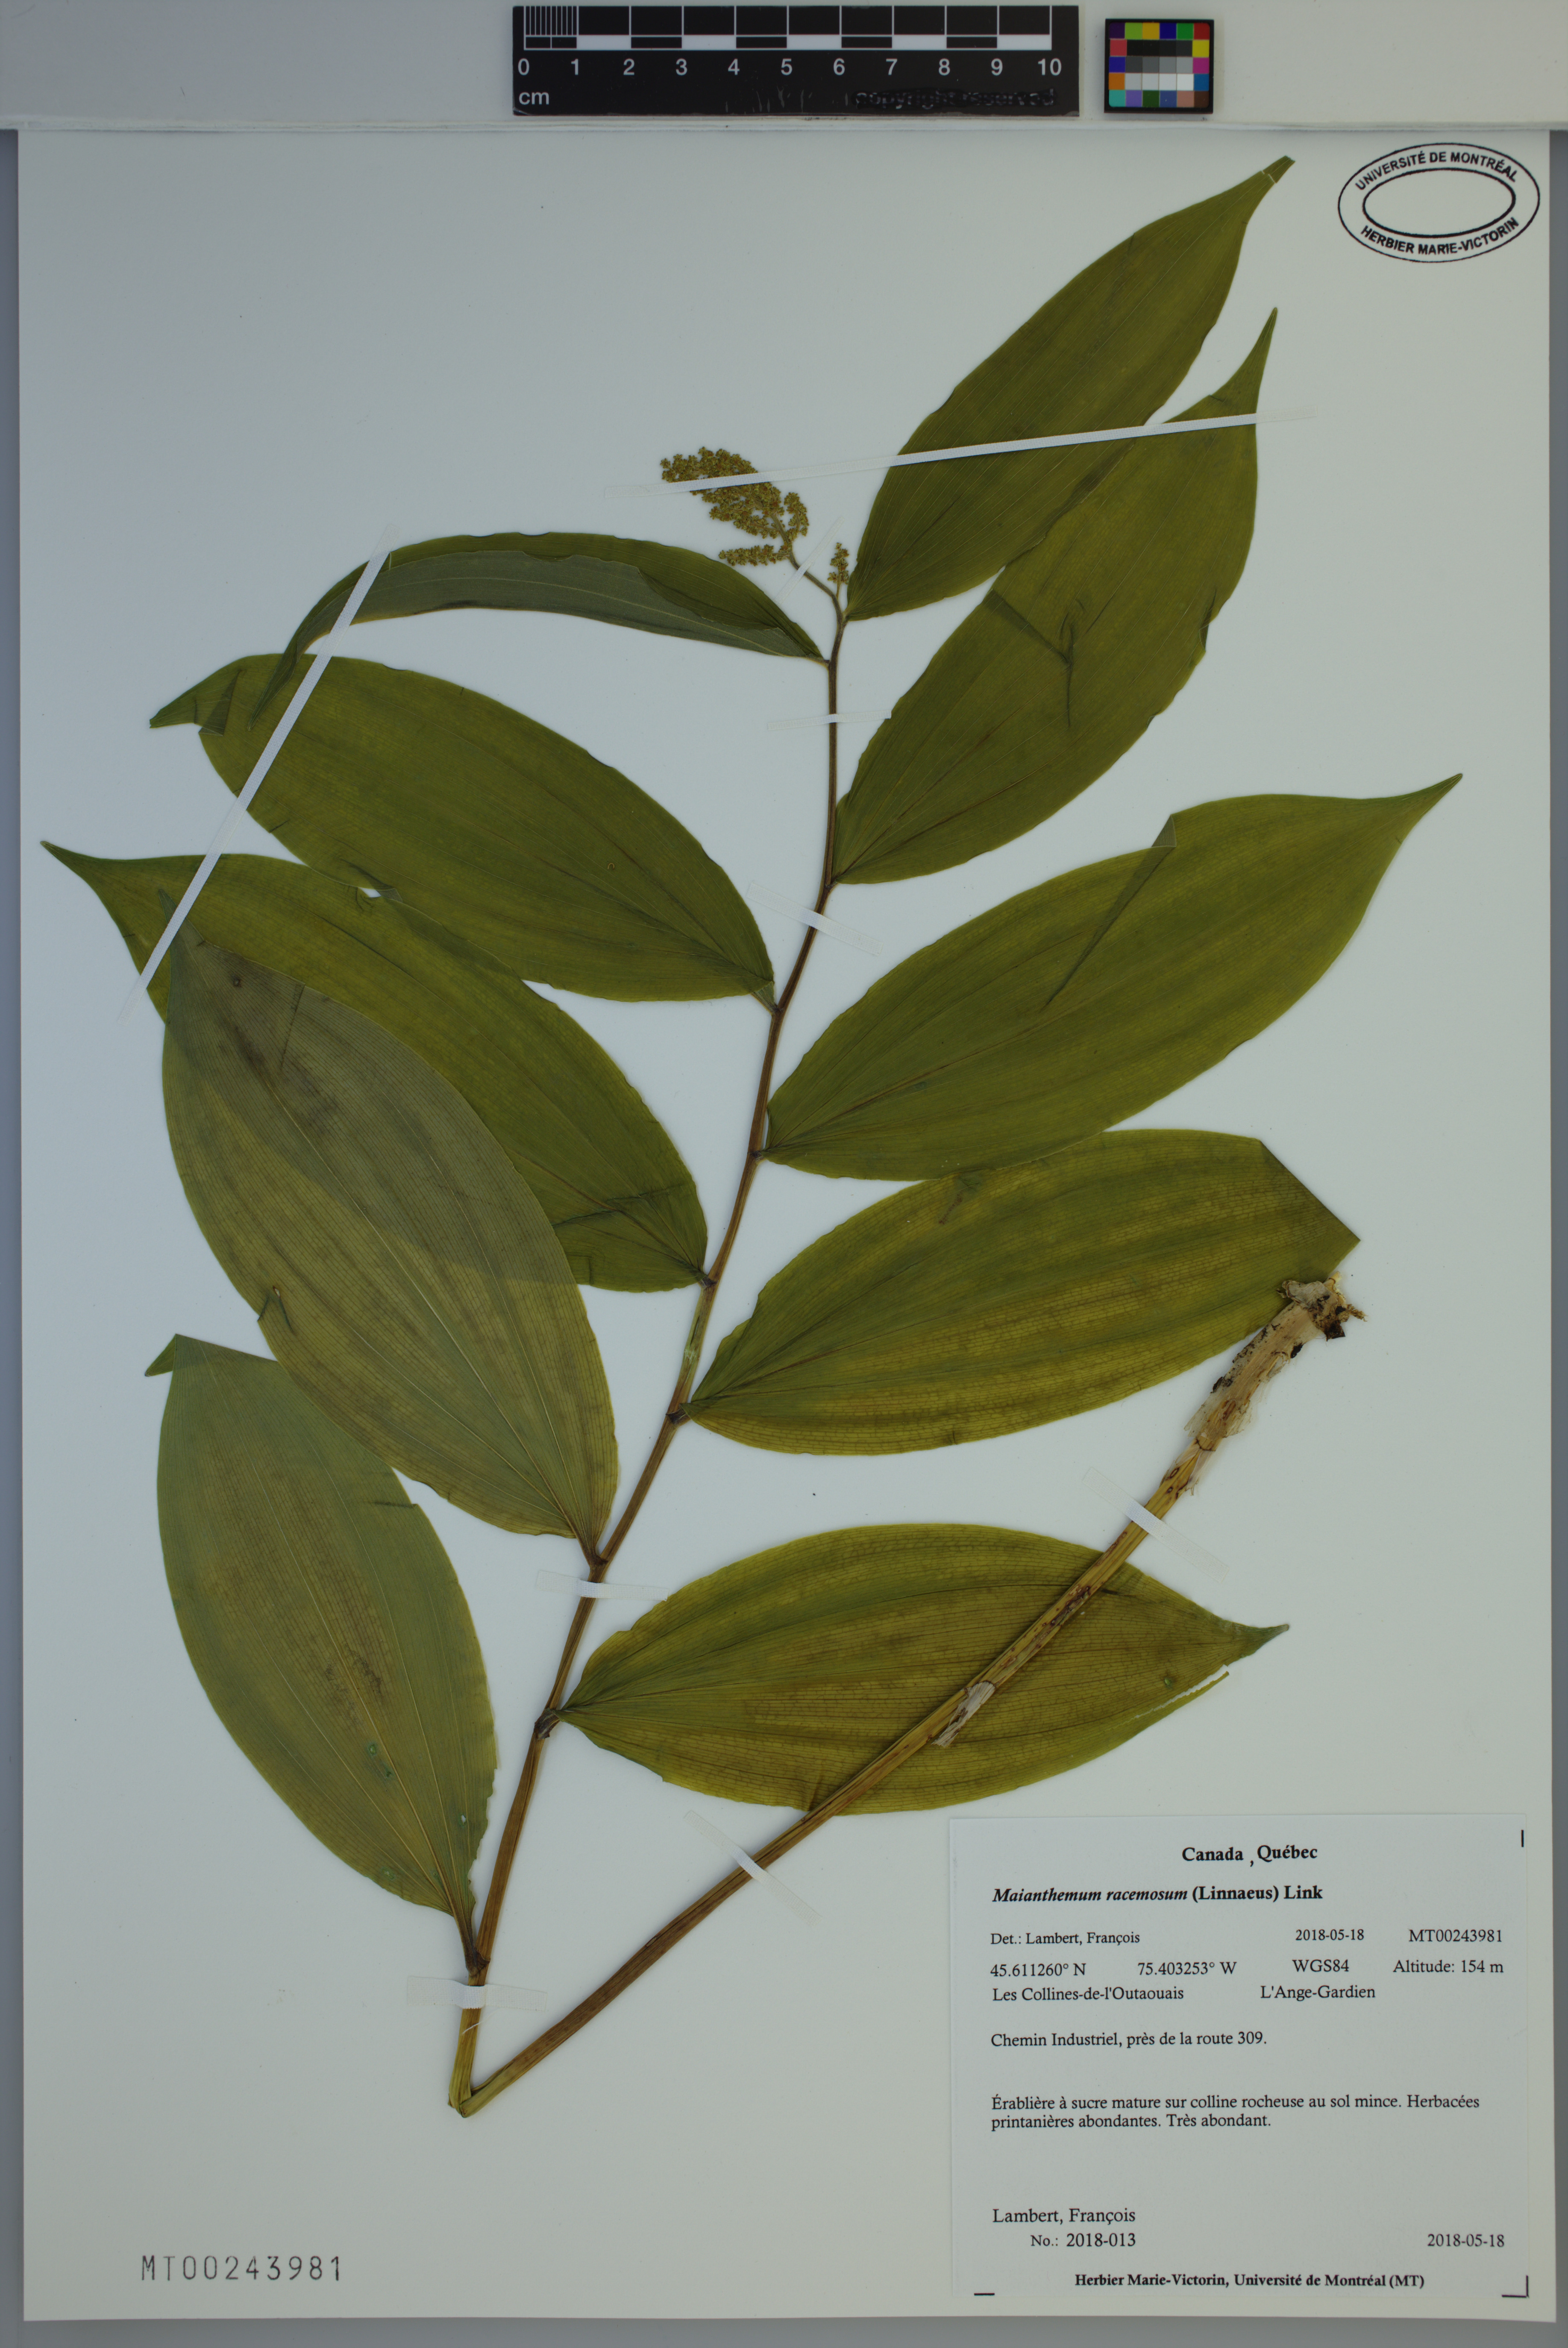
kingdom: Plantae
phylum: Tracheophyta
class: Liliopsida
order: Asparagales
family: Asparagaceae
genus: Maianthemum
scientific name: Maianthemum racemosum
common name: False spikenard
